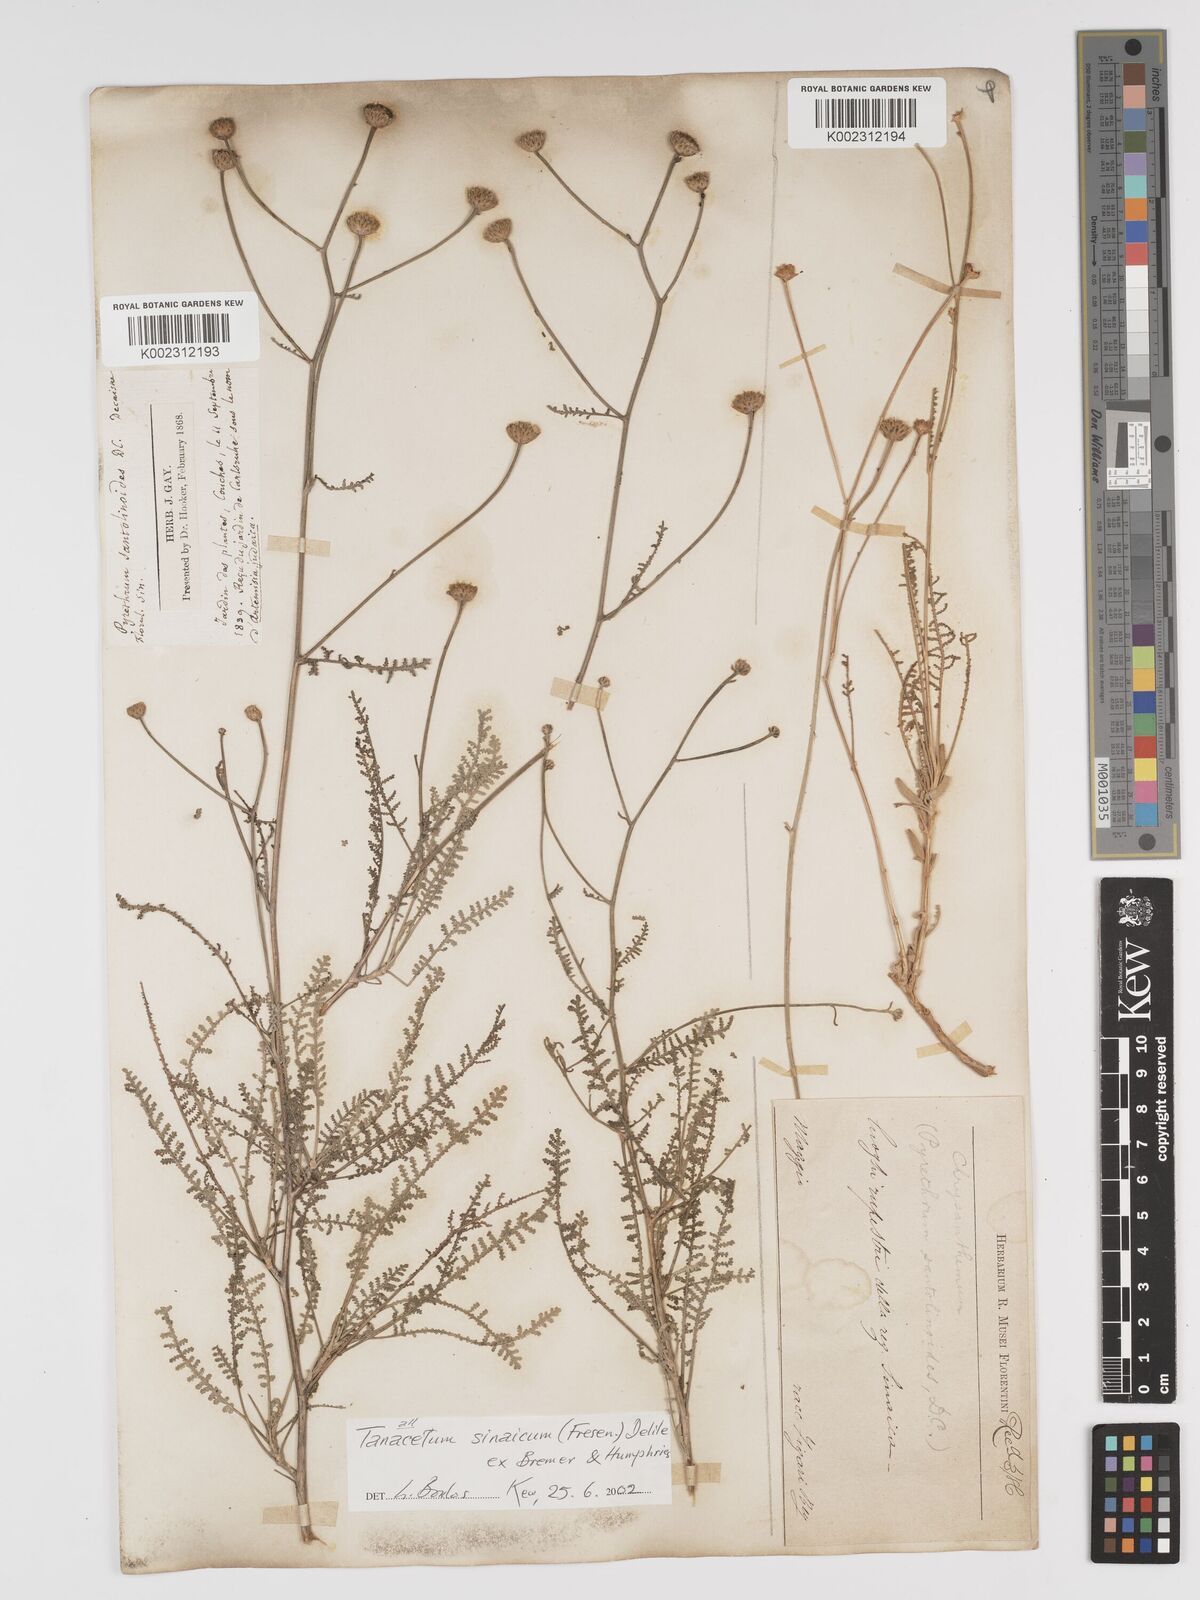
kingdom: Plantae
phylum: Tracheophyta
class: Magnoliopsida
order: Asterales
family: Asteraceae
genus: Tanacetum
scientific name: Tanacetum sinaicum
